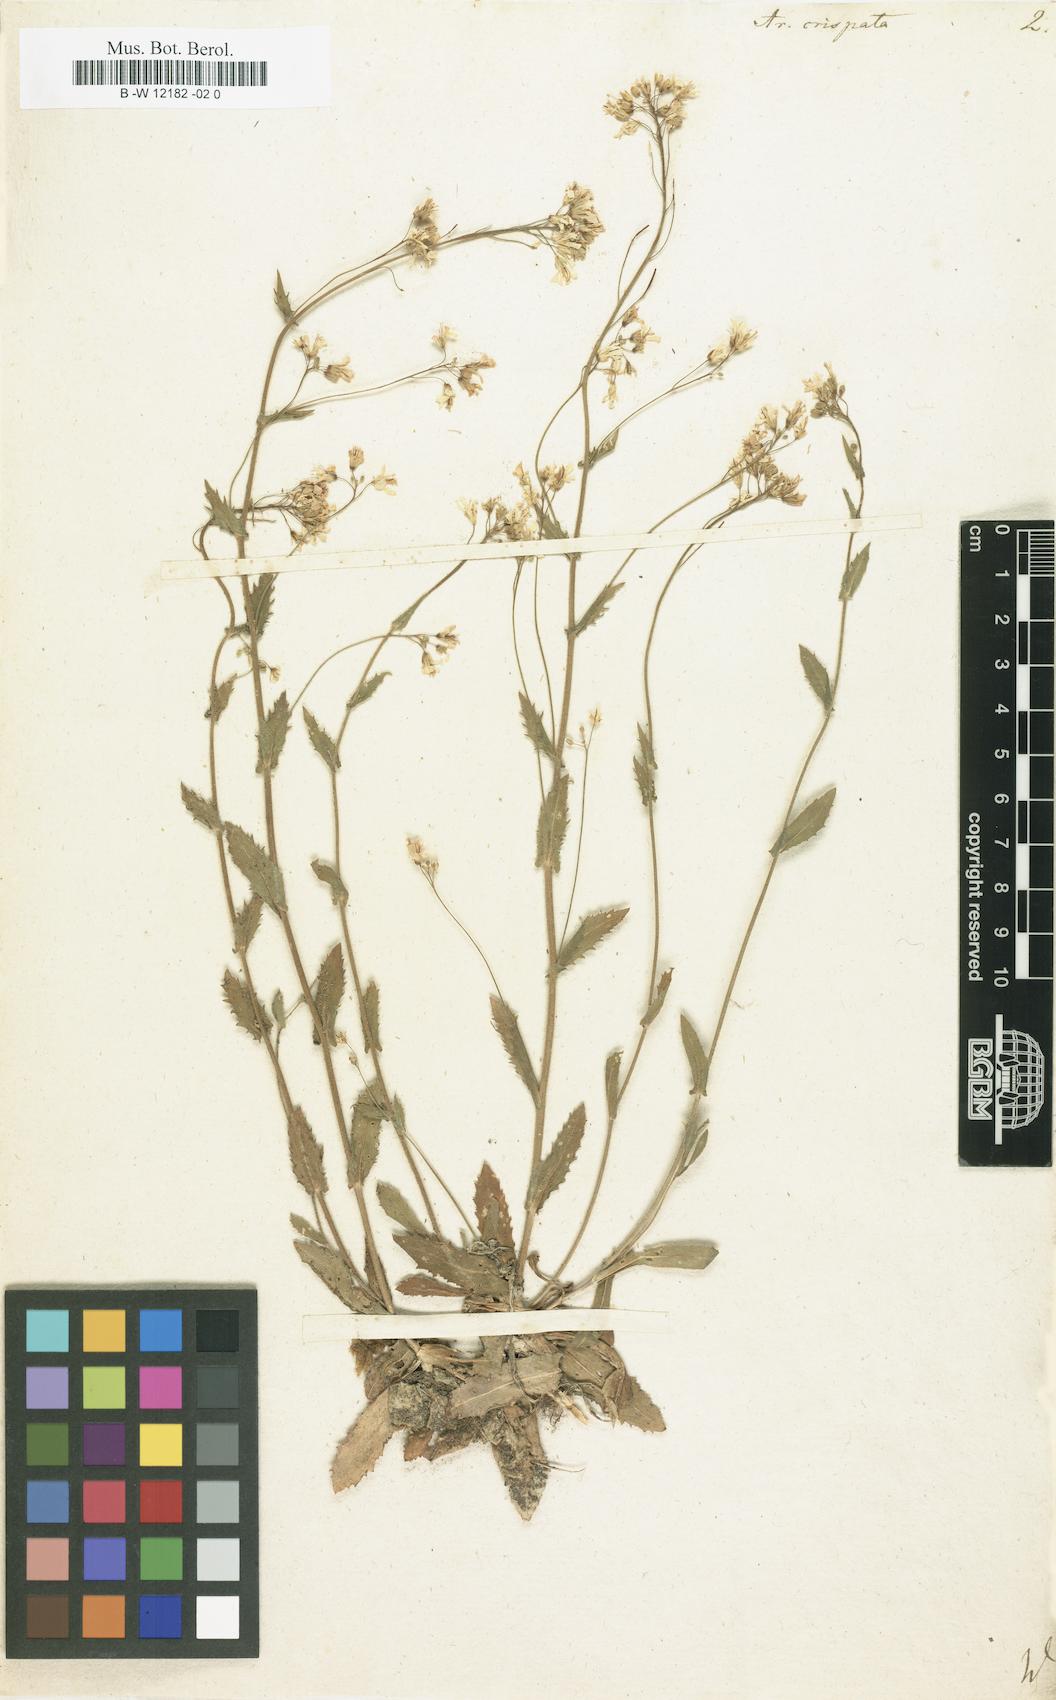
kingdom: Plantae
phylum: Tracheophyta
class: Magnoliopsida
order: Brassicales
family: Brassicaceae
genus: Arabis
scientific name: Arabis alpina
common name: Alpine rock-cress
